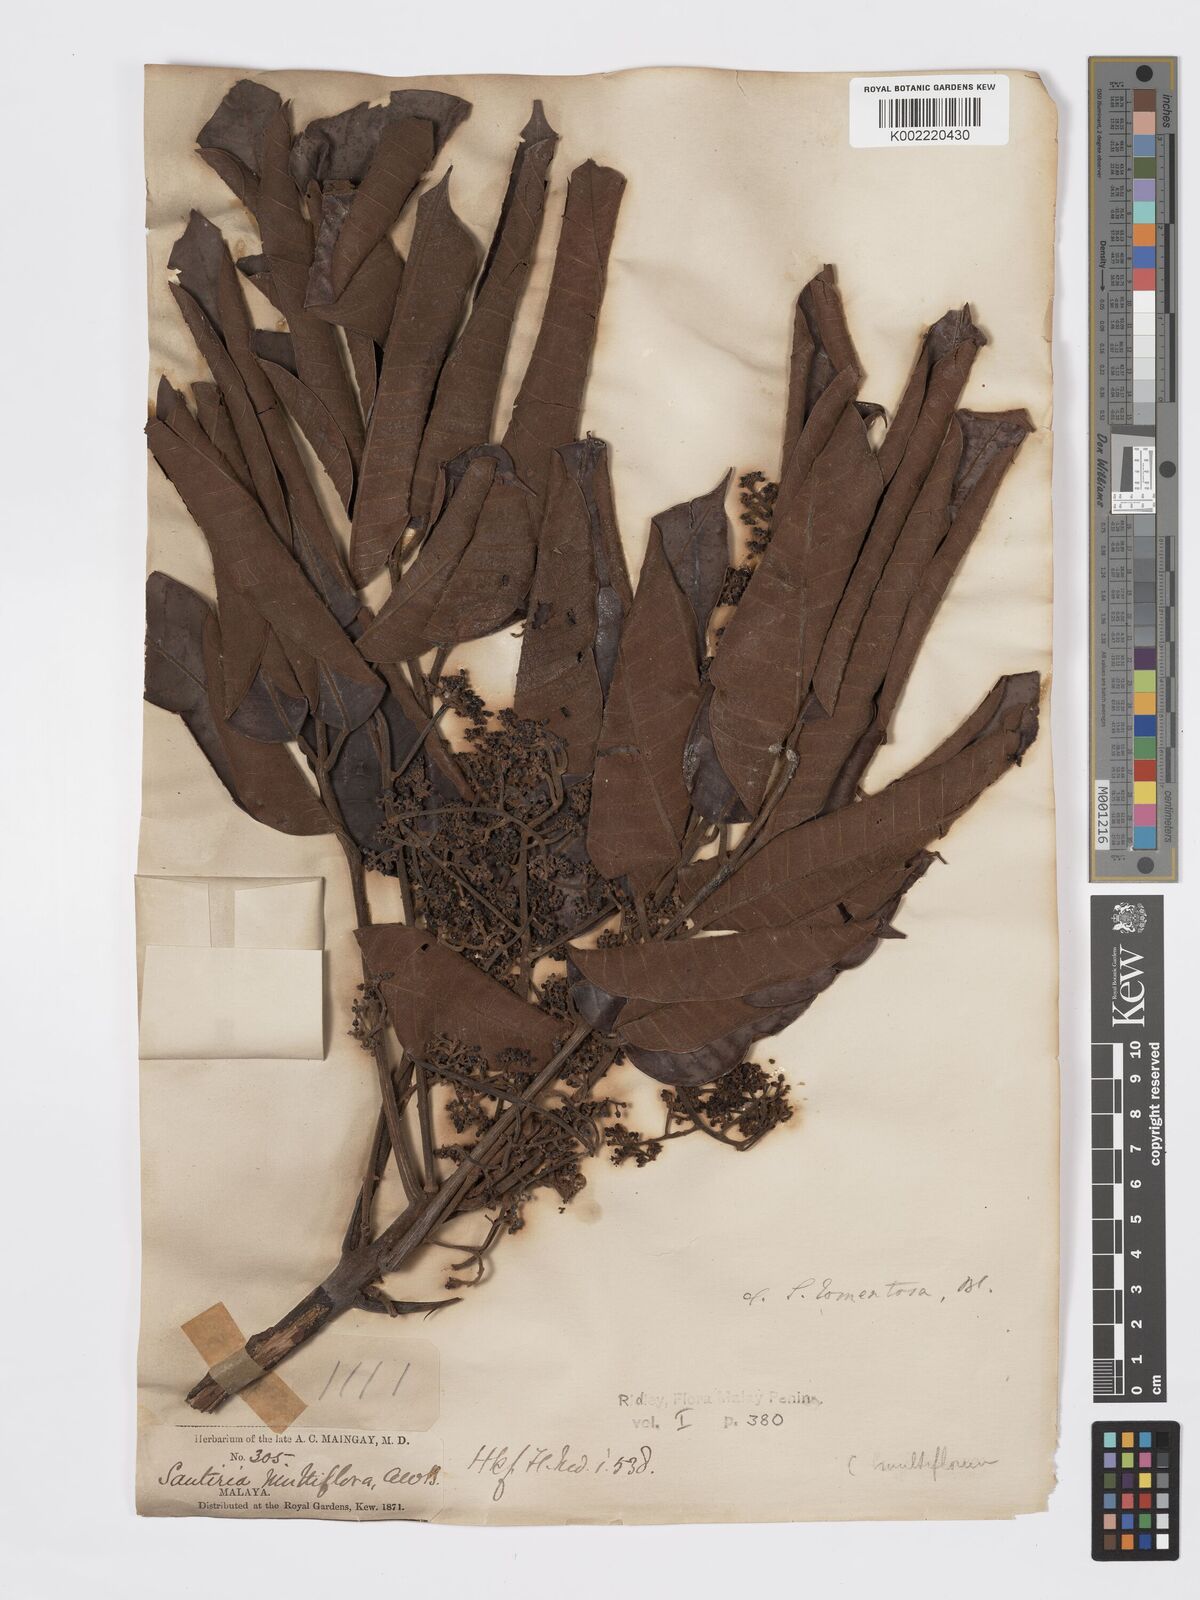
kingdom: Plantae
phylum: Tracheophyta
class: Magnoliopsida
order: Sapindales
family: Burseraceae
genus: Santiria
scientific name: Santiria tomentosa
